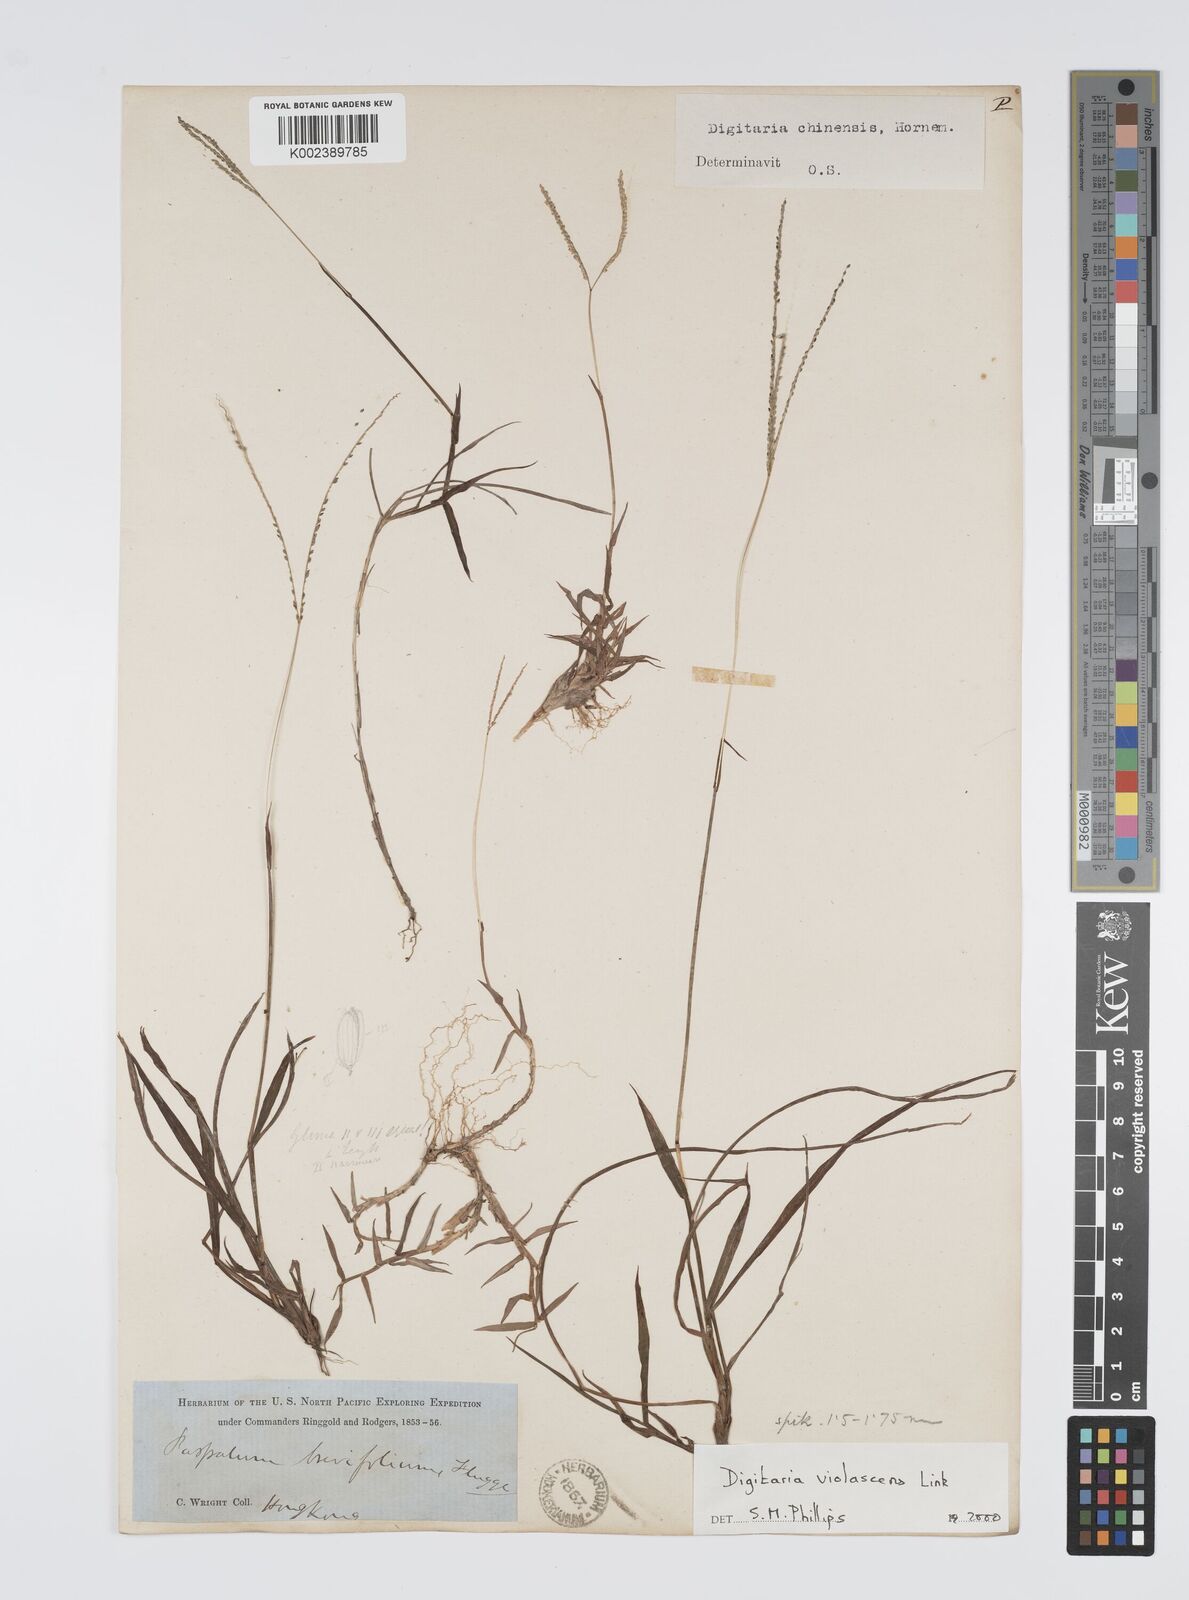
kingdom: Plantae
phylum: Tracheophyta
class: Liliopsida
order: Poales
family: Poaceae
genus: Digitaria
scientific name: Digitaria violascens
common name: Violet crabgrass
